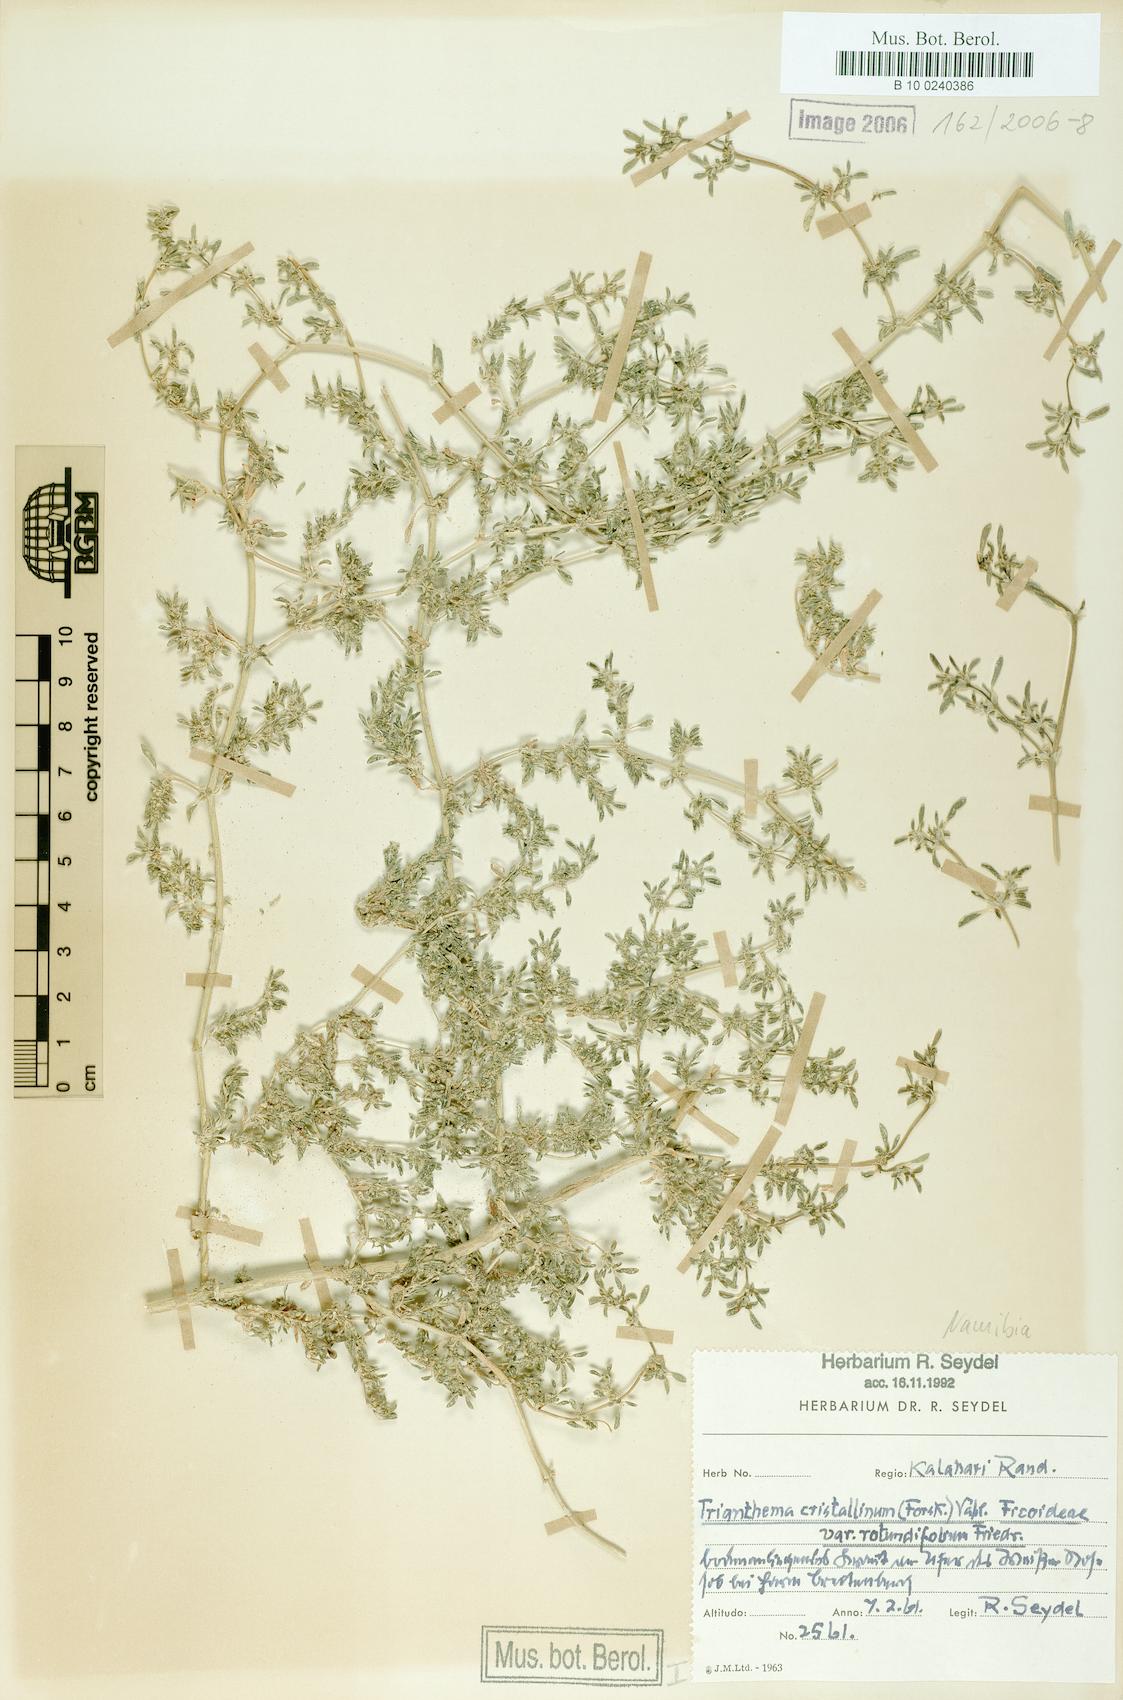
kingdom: Plantae
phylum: Tracheophyta
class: Magnoliopsida
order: Caryophyllales
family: Aizoaceae
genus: Trianthema
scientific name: Trianthema crystallinum
